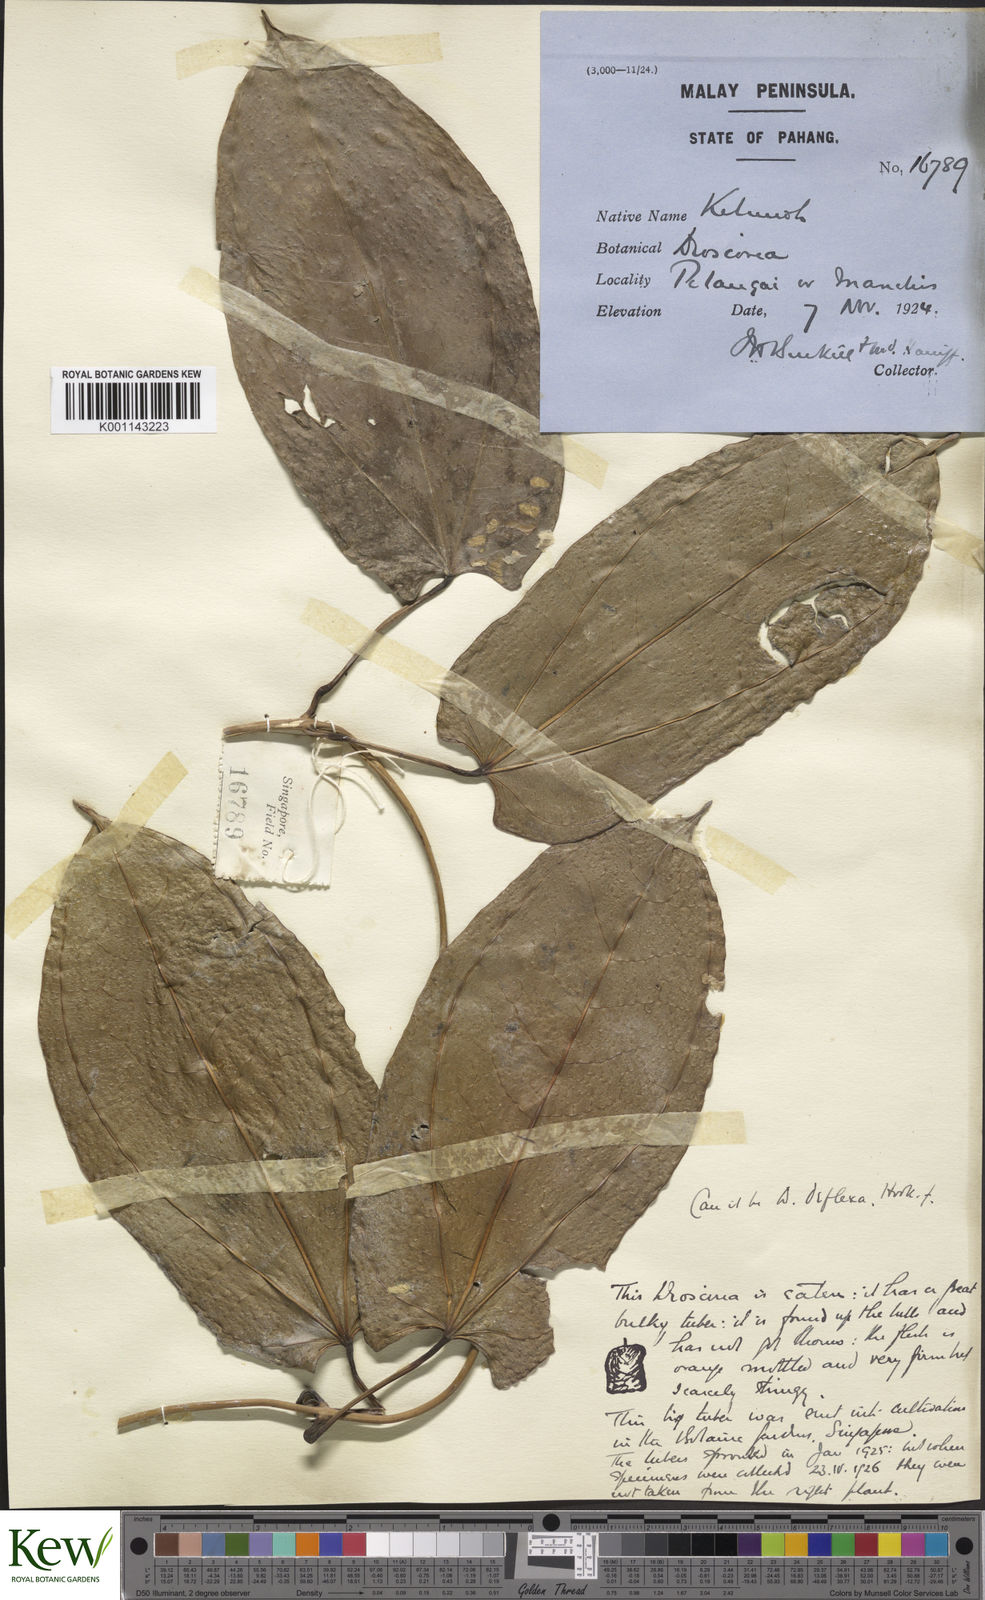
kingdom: Plantae
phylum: Tracheophyta
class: Liliopsida
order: Dioscoreales
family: Dioscoreaceae
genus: Dioscorea
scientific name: Dioscorea prainiana
